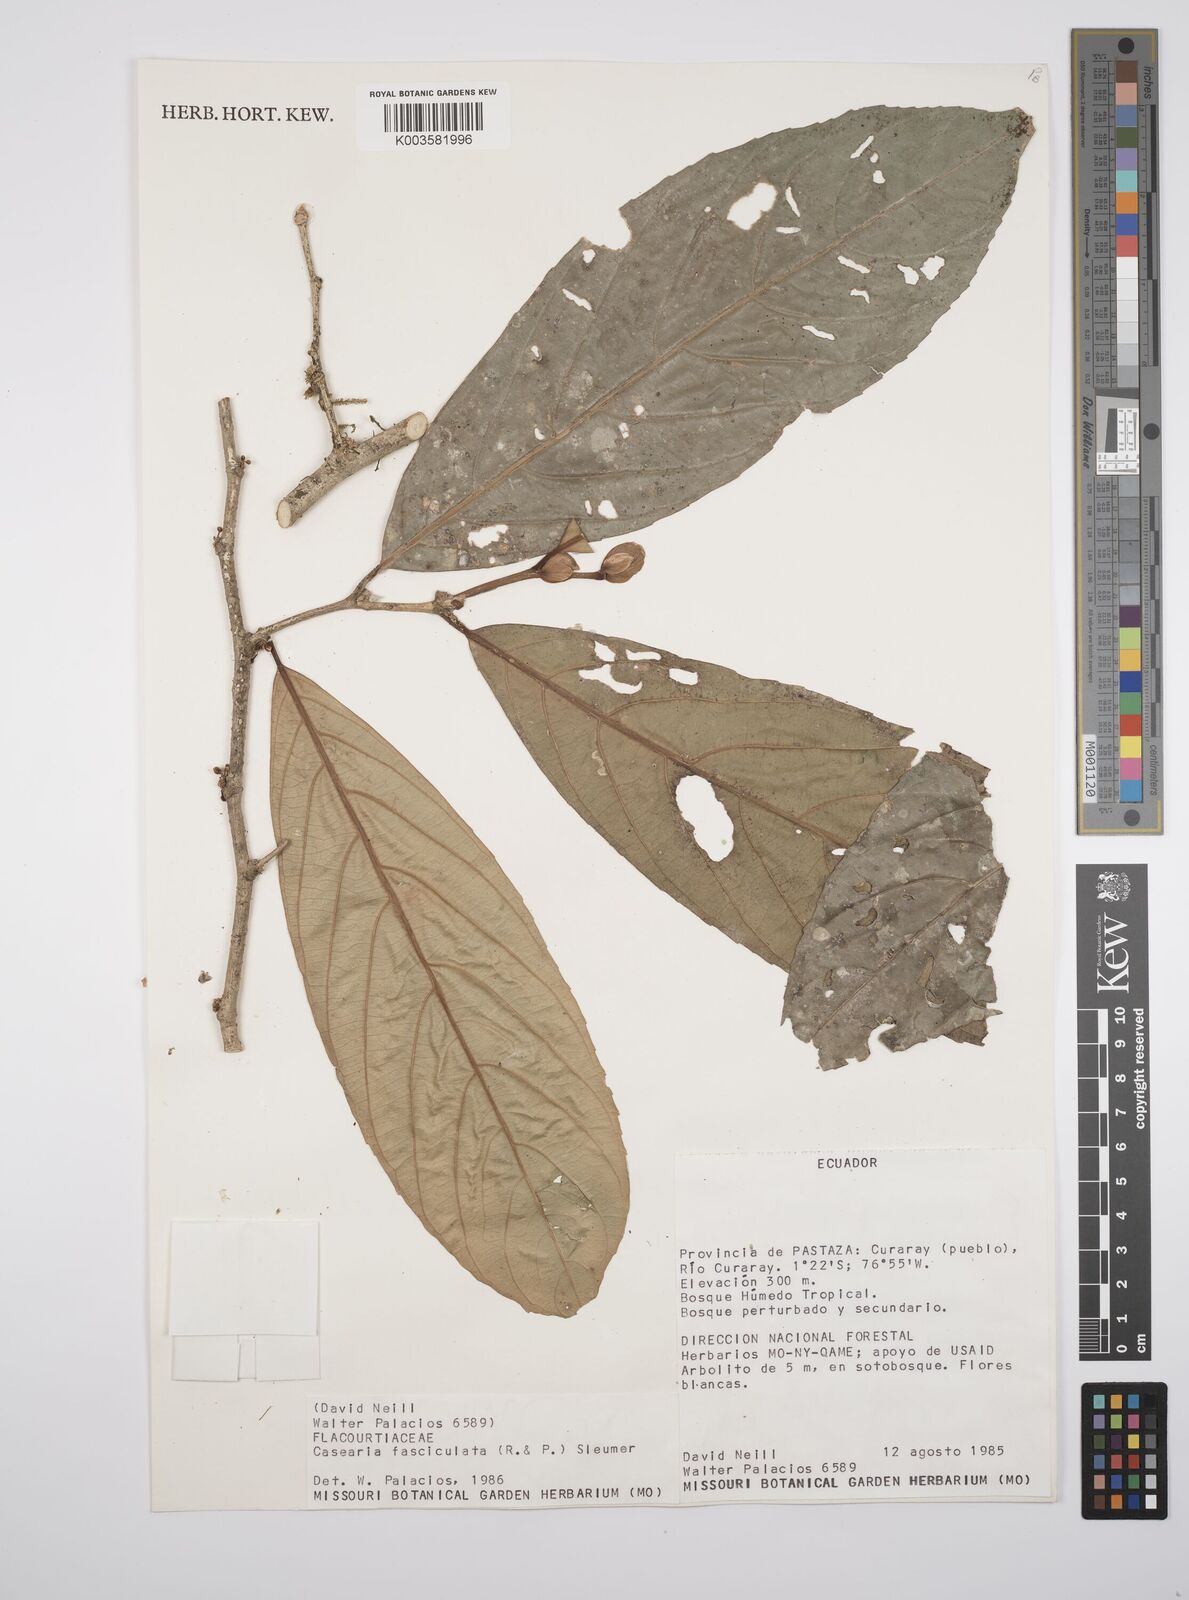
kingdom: Plantae
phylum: Tracheophyta
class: Magnoliopsida
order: Malpighiales
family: Salicaceae
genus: Casearia
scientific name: Casearia
